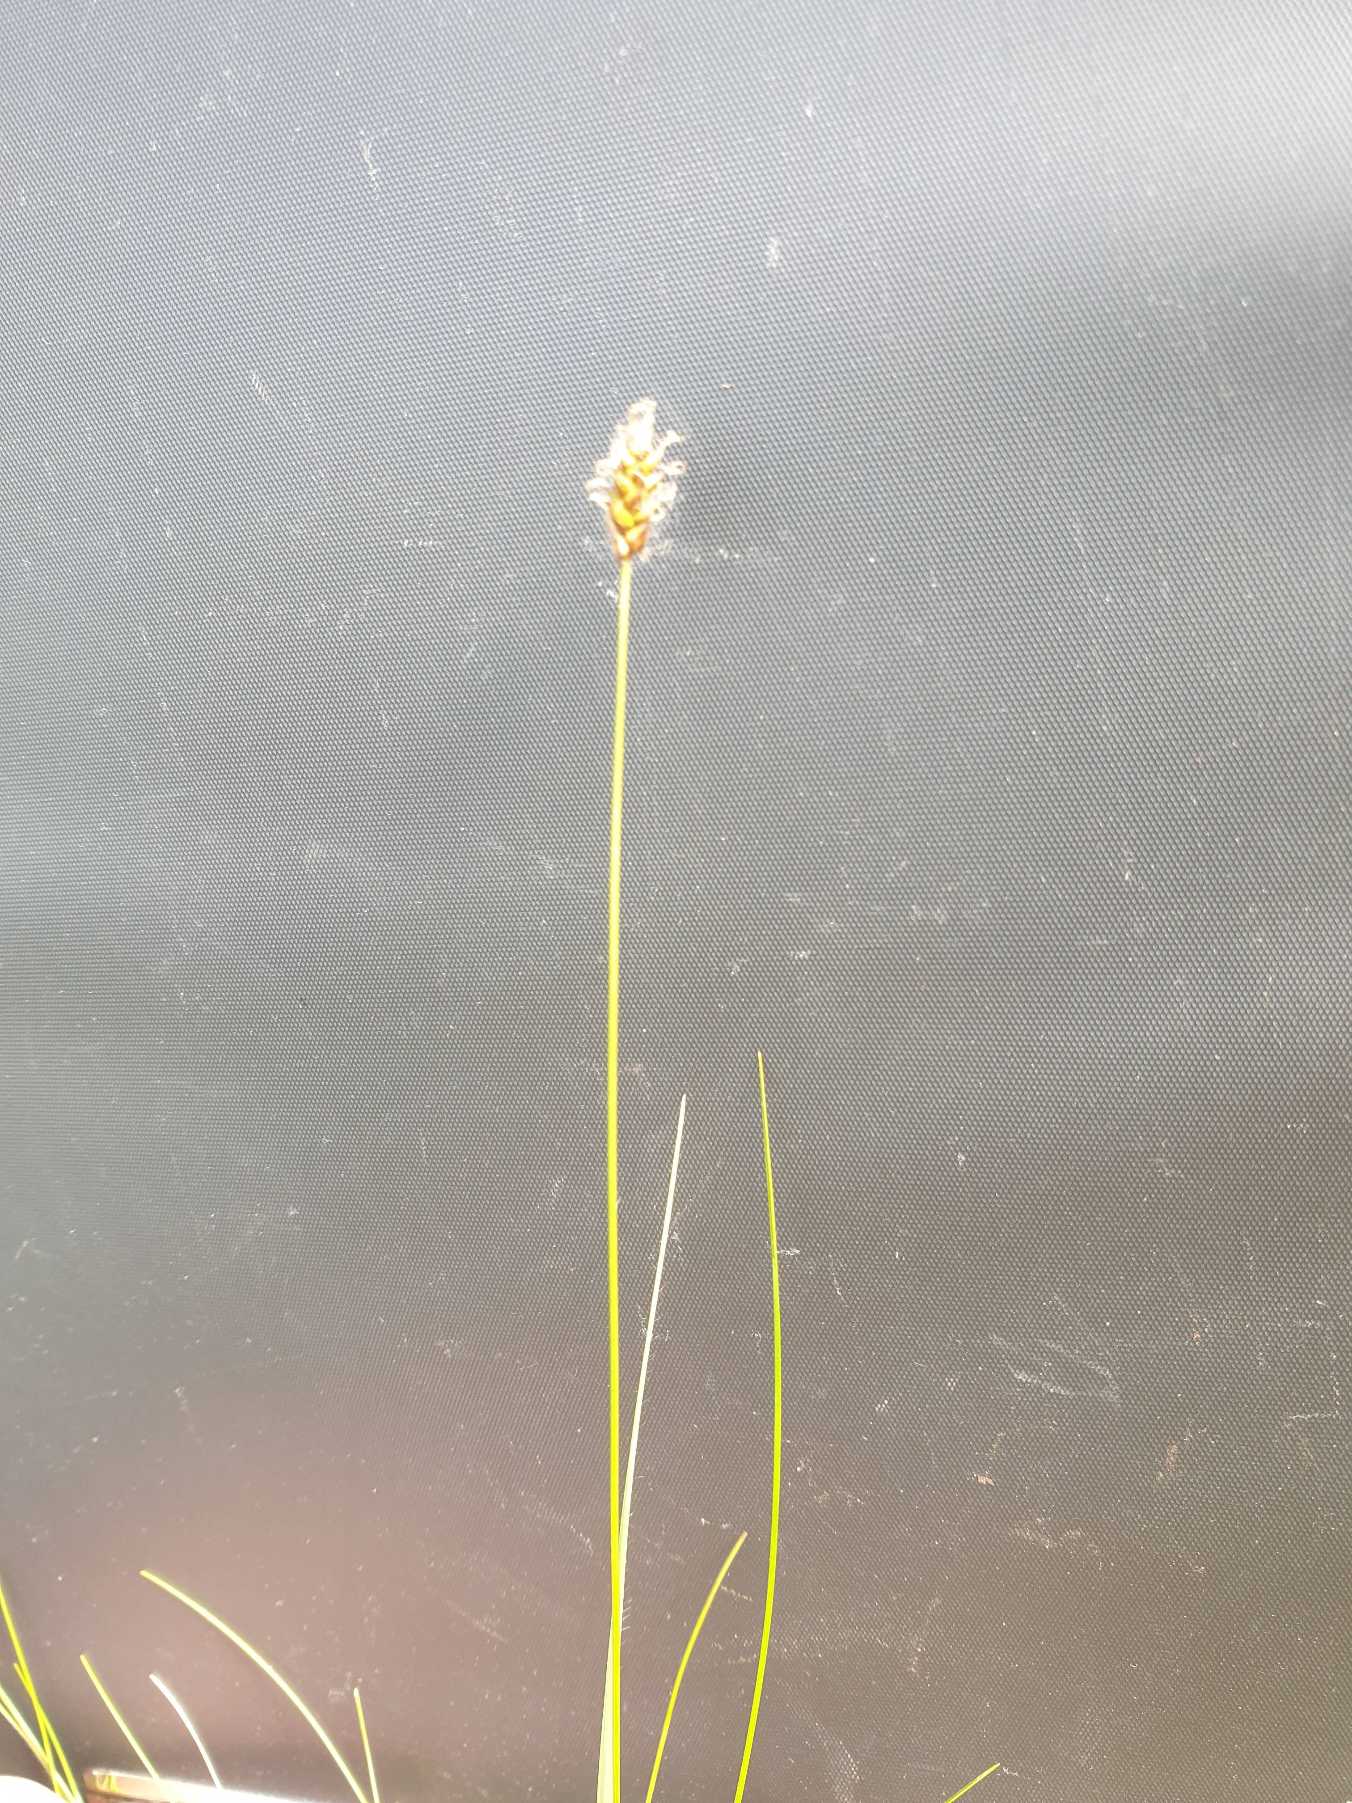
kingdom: Plantae
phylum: Tracheophyta
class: Liliopsida
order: Poales
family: Cyperaceae
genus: Carex
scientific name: Carex dioica
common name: Tvebo star
